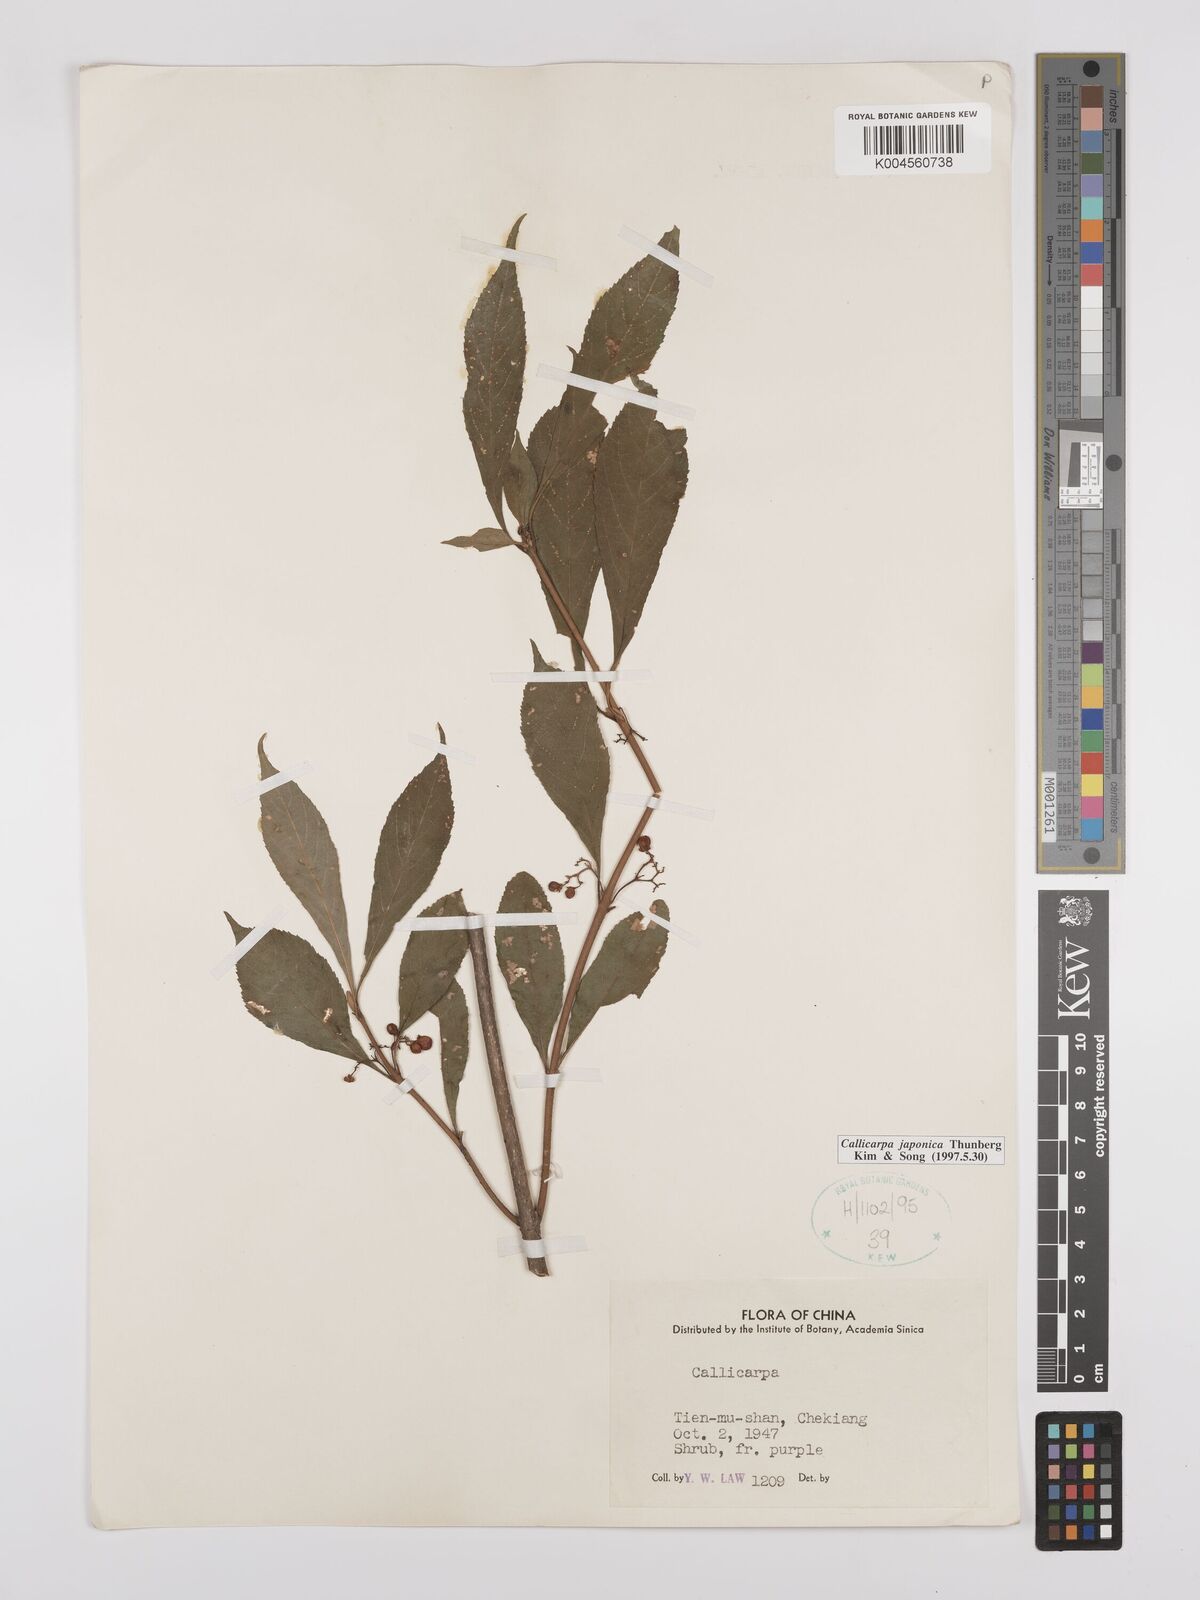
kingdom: Plantae
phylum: Tracheophyta
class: Magnoliopsida
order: Lamiales
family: Lamiaceae
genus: Callicarpa
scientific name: Callicarpa japonica
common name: Japanese beauty-berry
